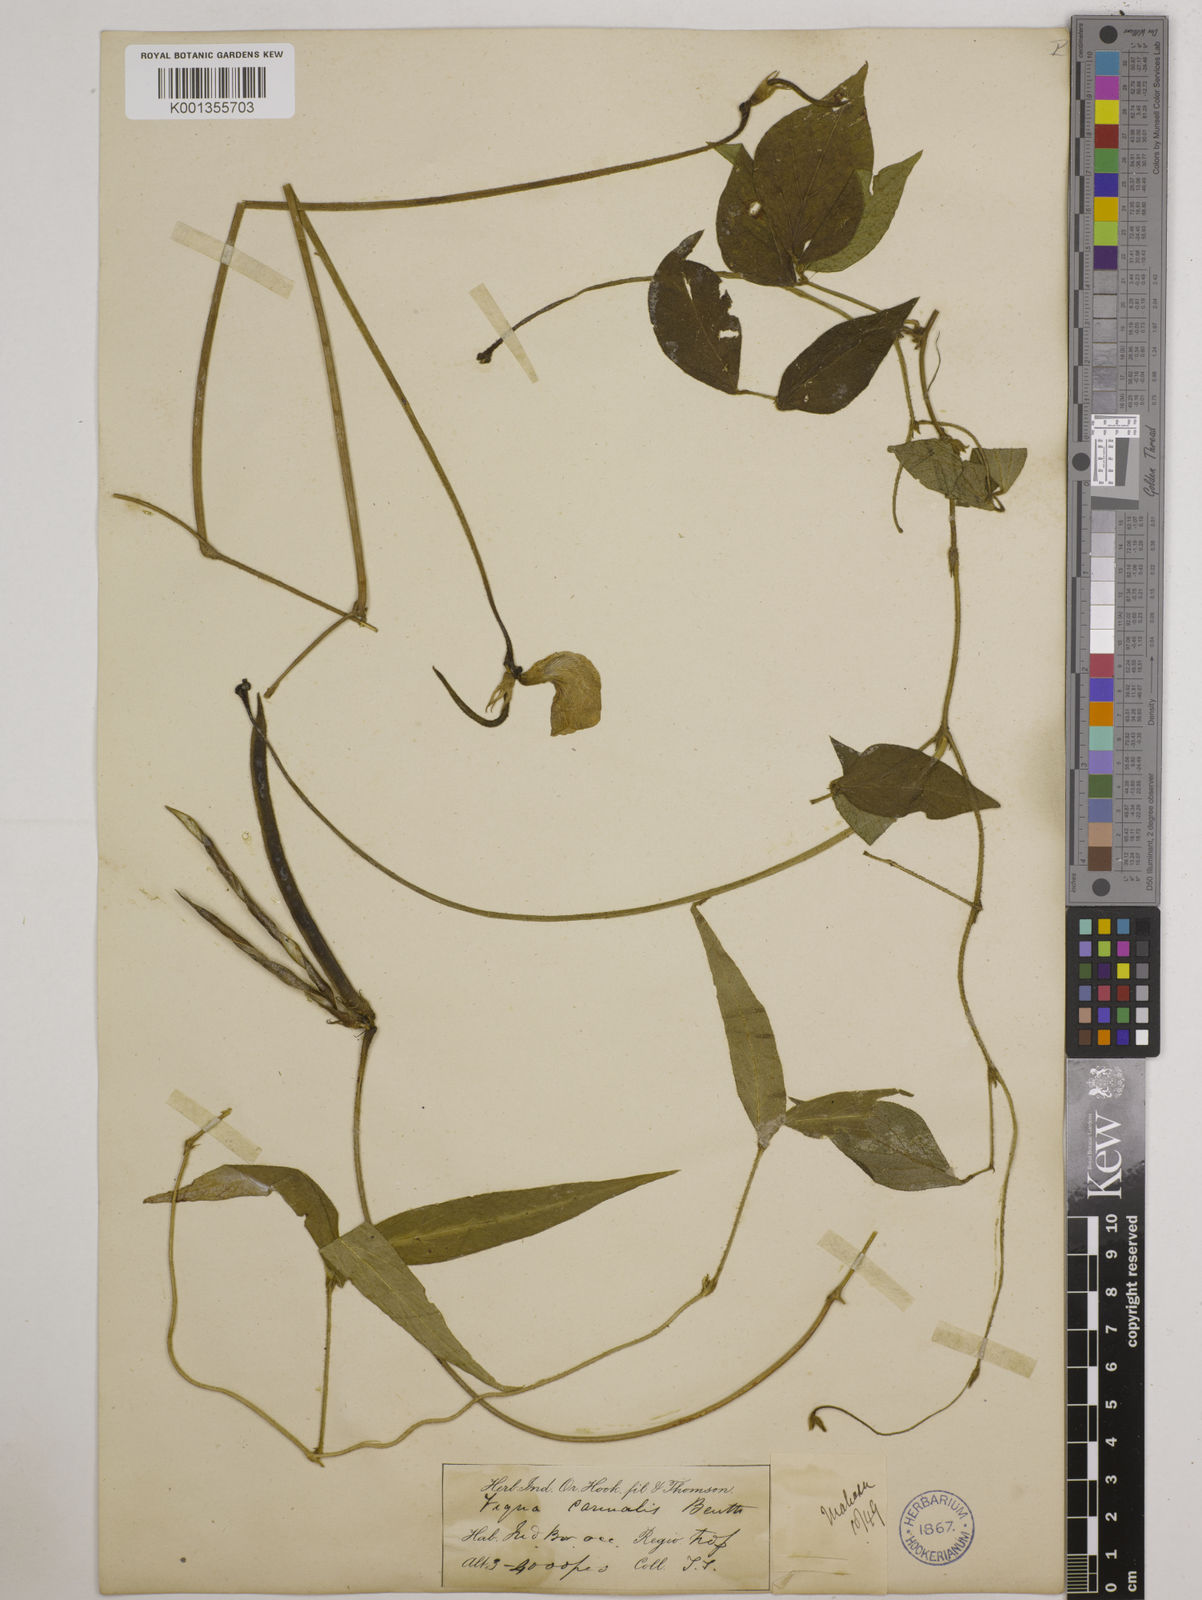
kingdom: Plantae
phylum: Tracheophyta
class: Magnoliopsida
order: Fabales
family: Fabaceae
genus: Vigna
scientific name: Vigna vexillata
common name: Zombi pea
